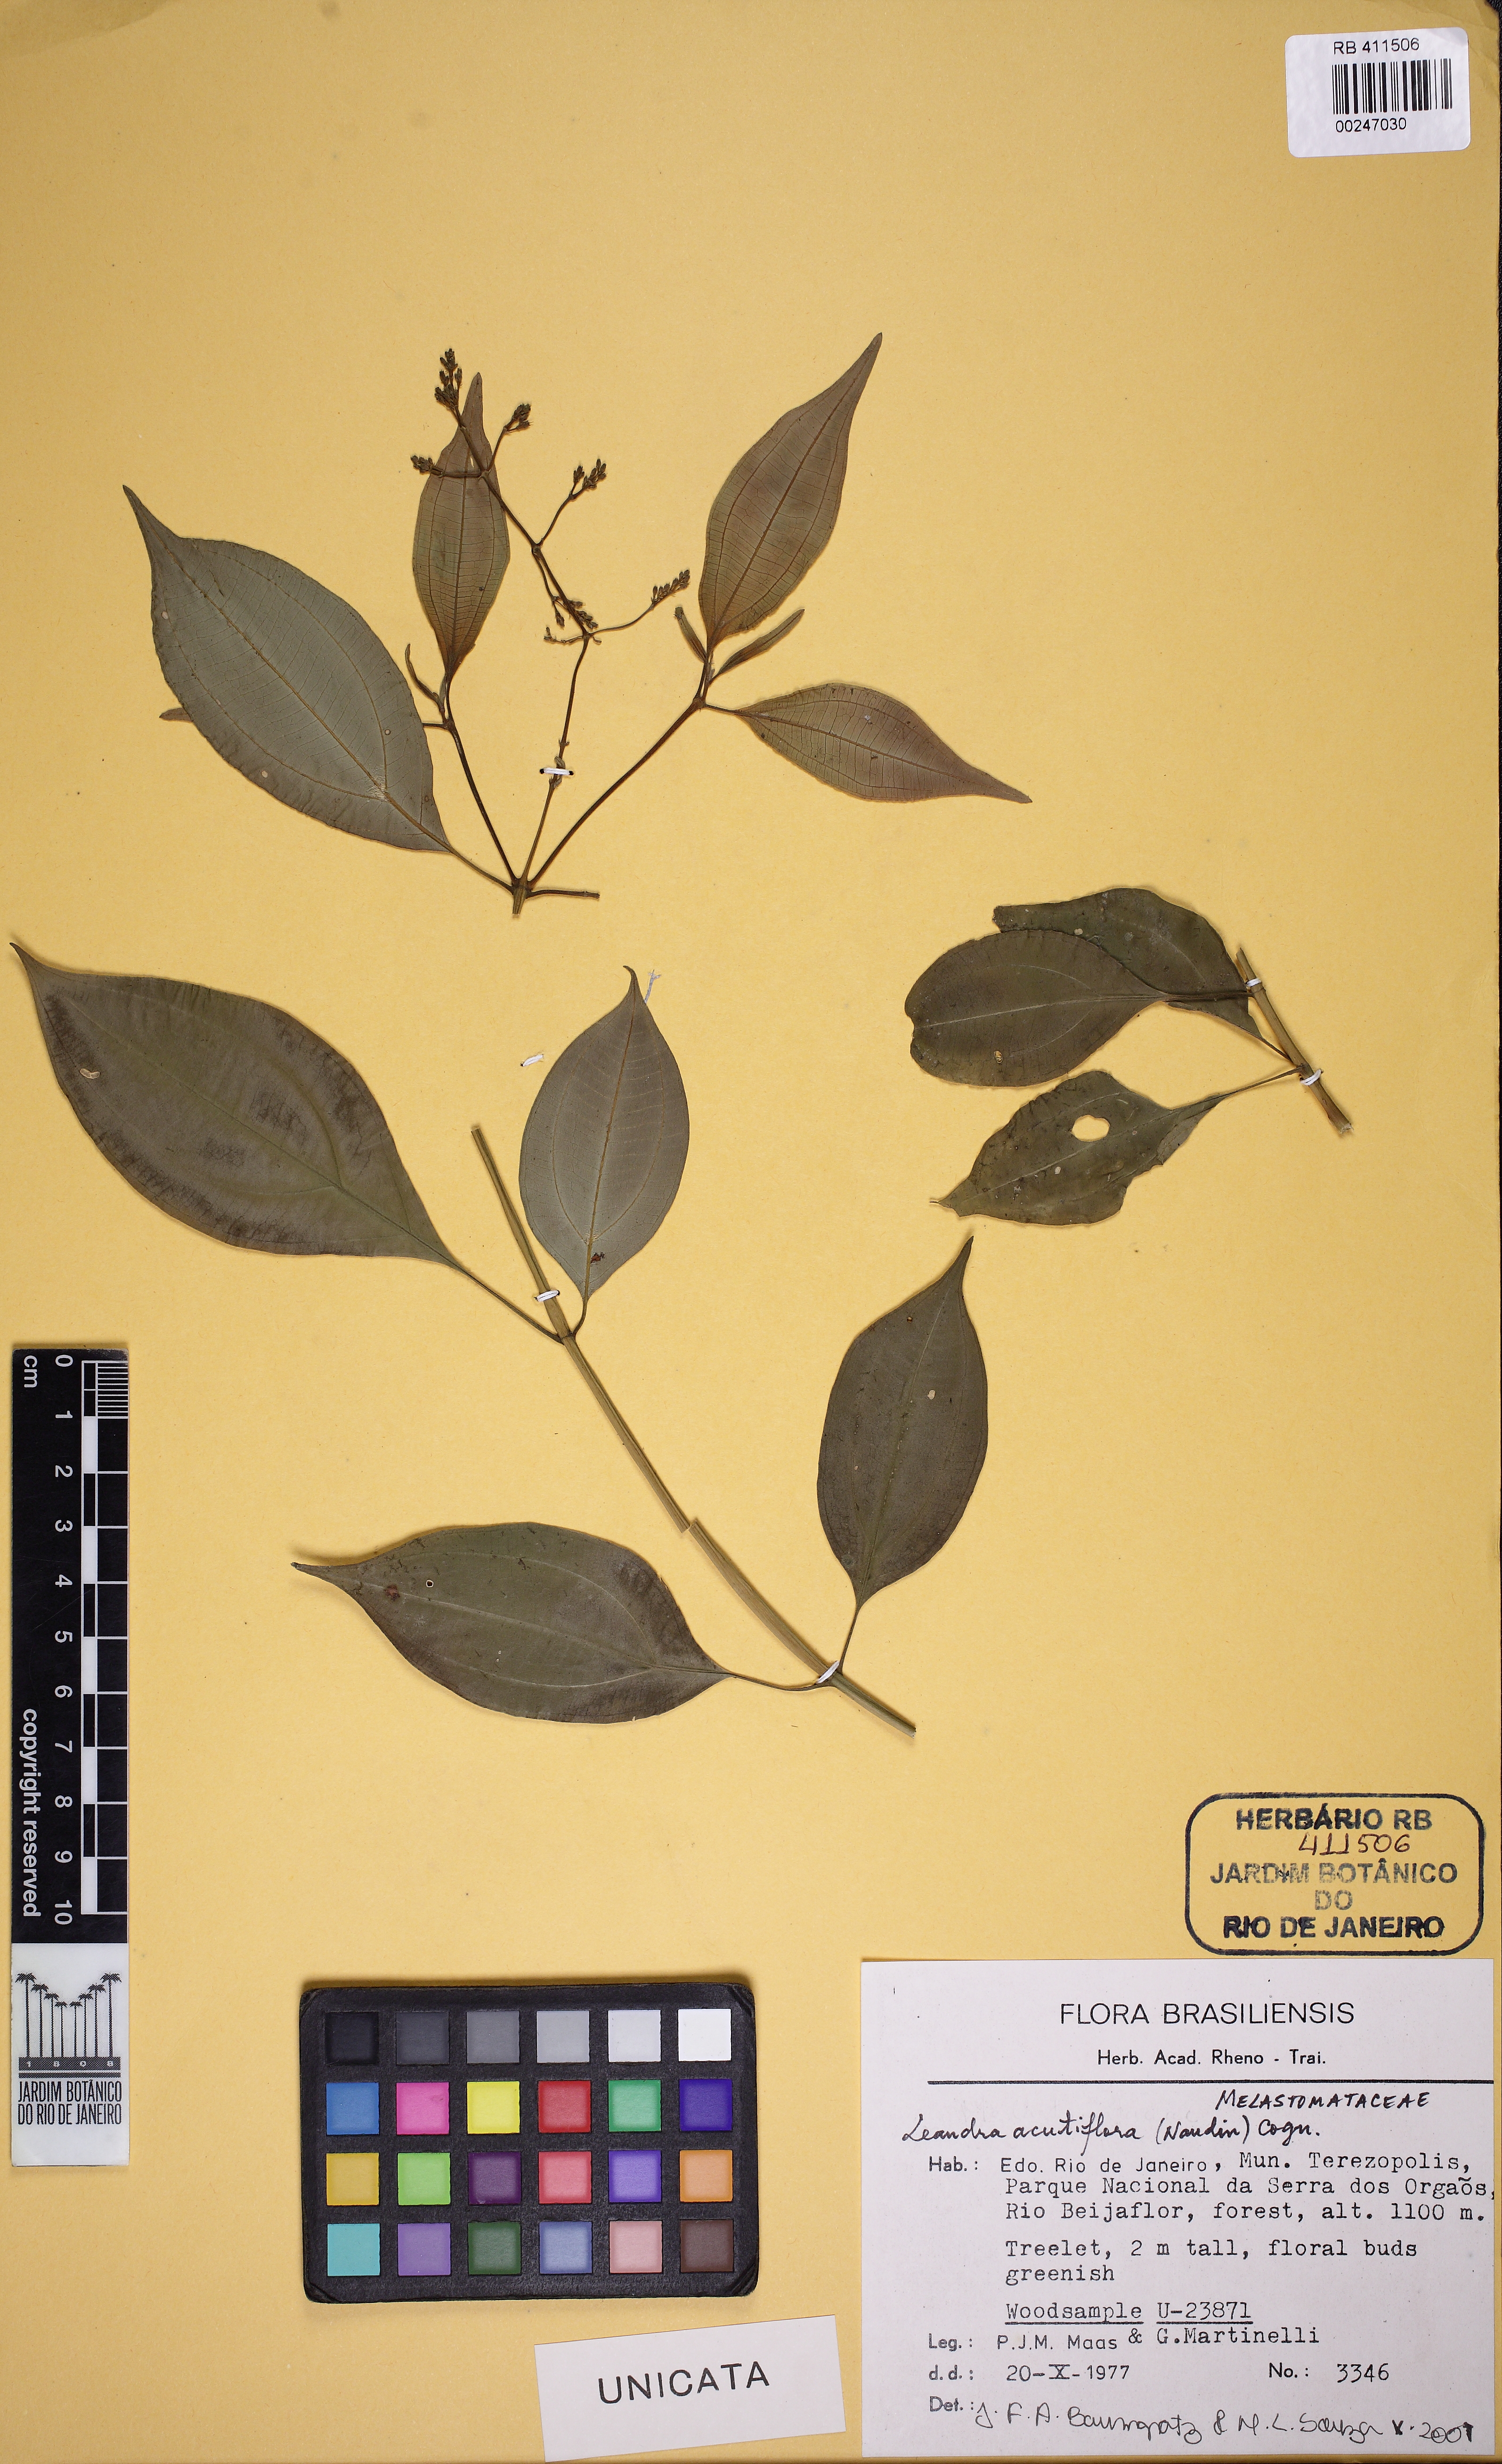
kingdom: Plantae
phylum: Tracheophyta
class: Magnoliopsida
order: Myrtales
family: Melastomataceae
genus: Miconia
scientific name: Miconia acutiflora
